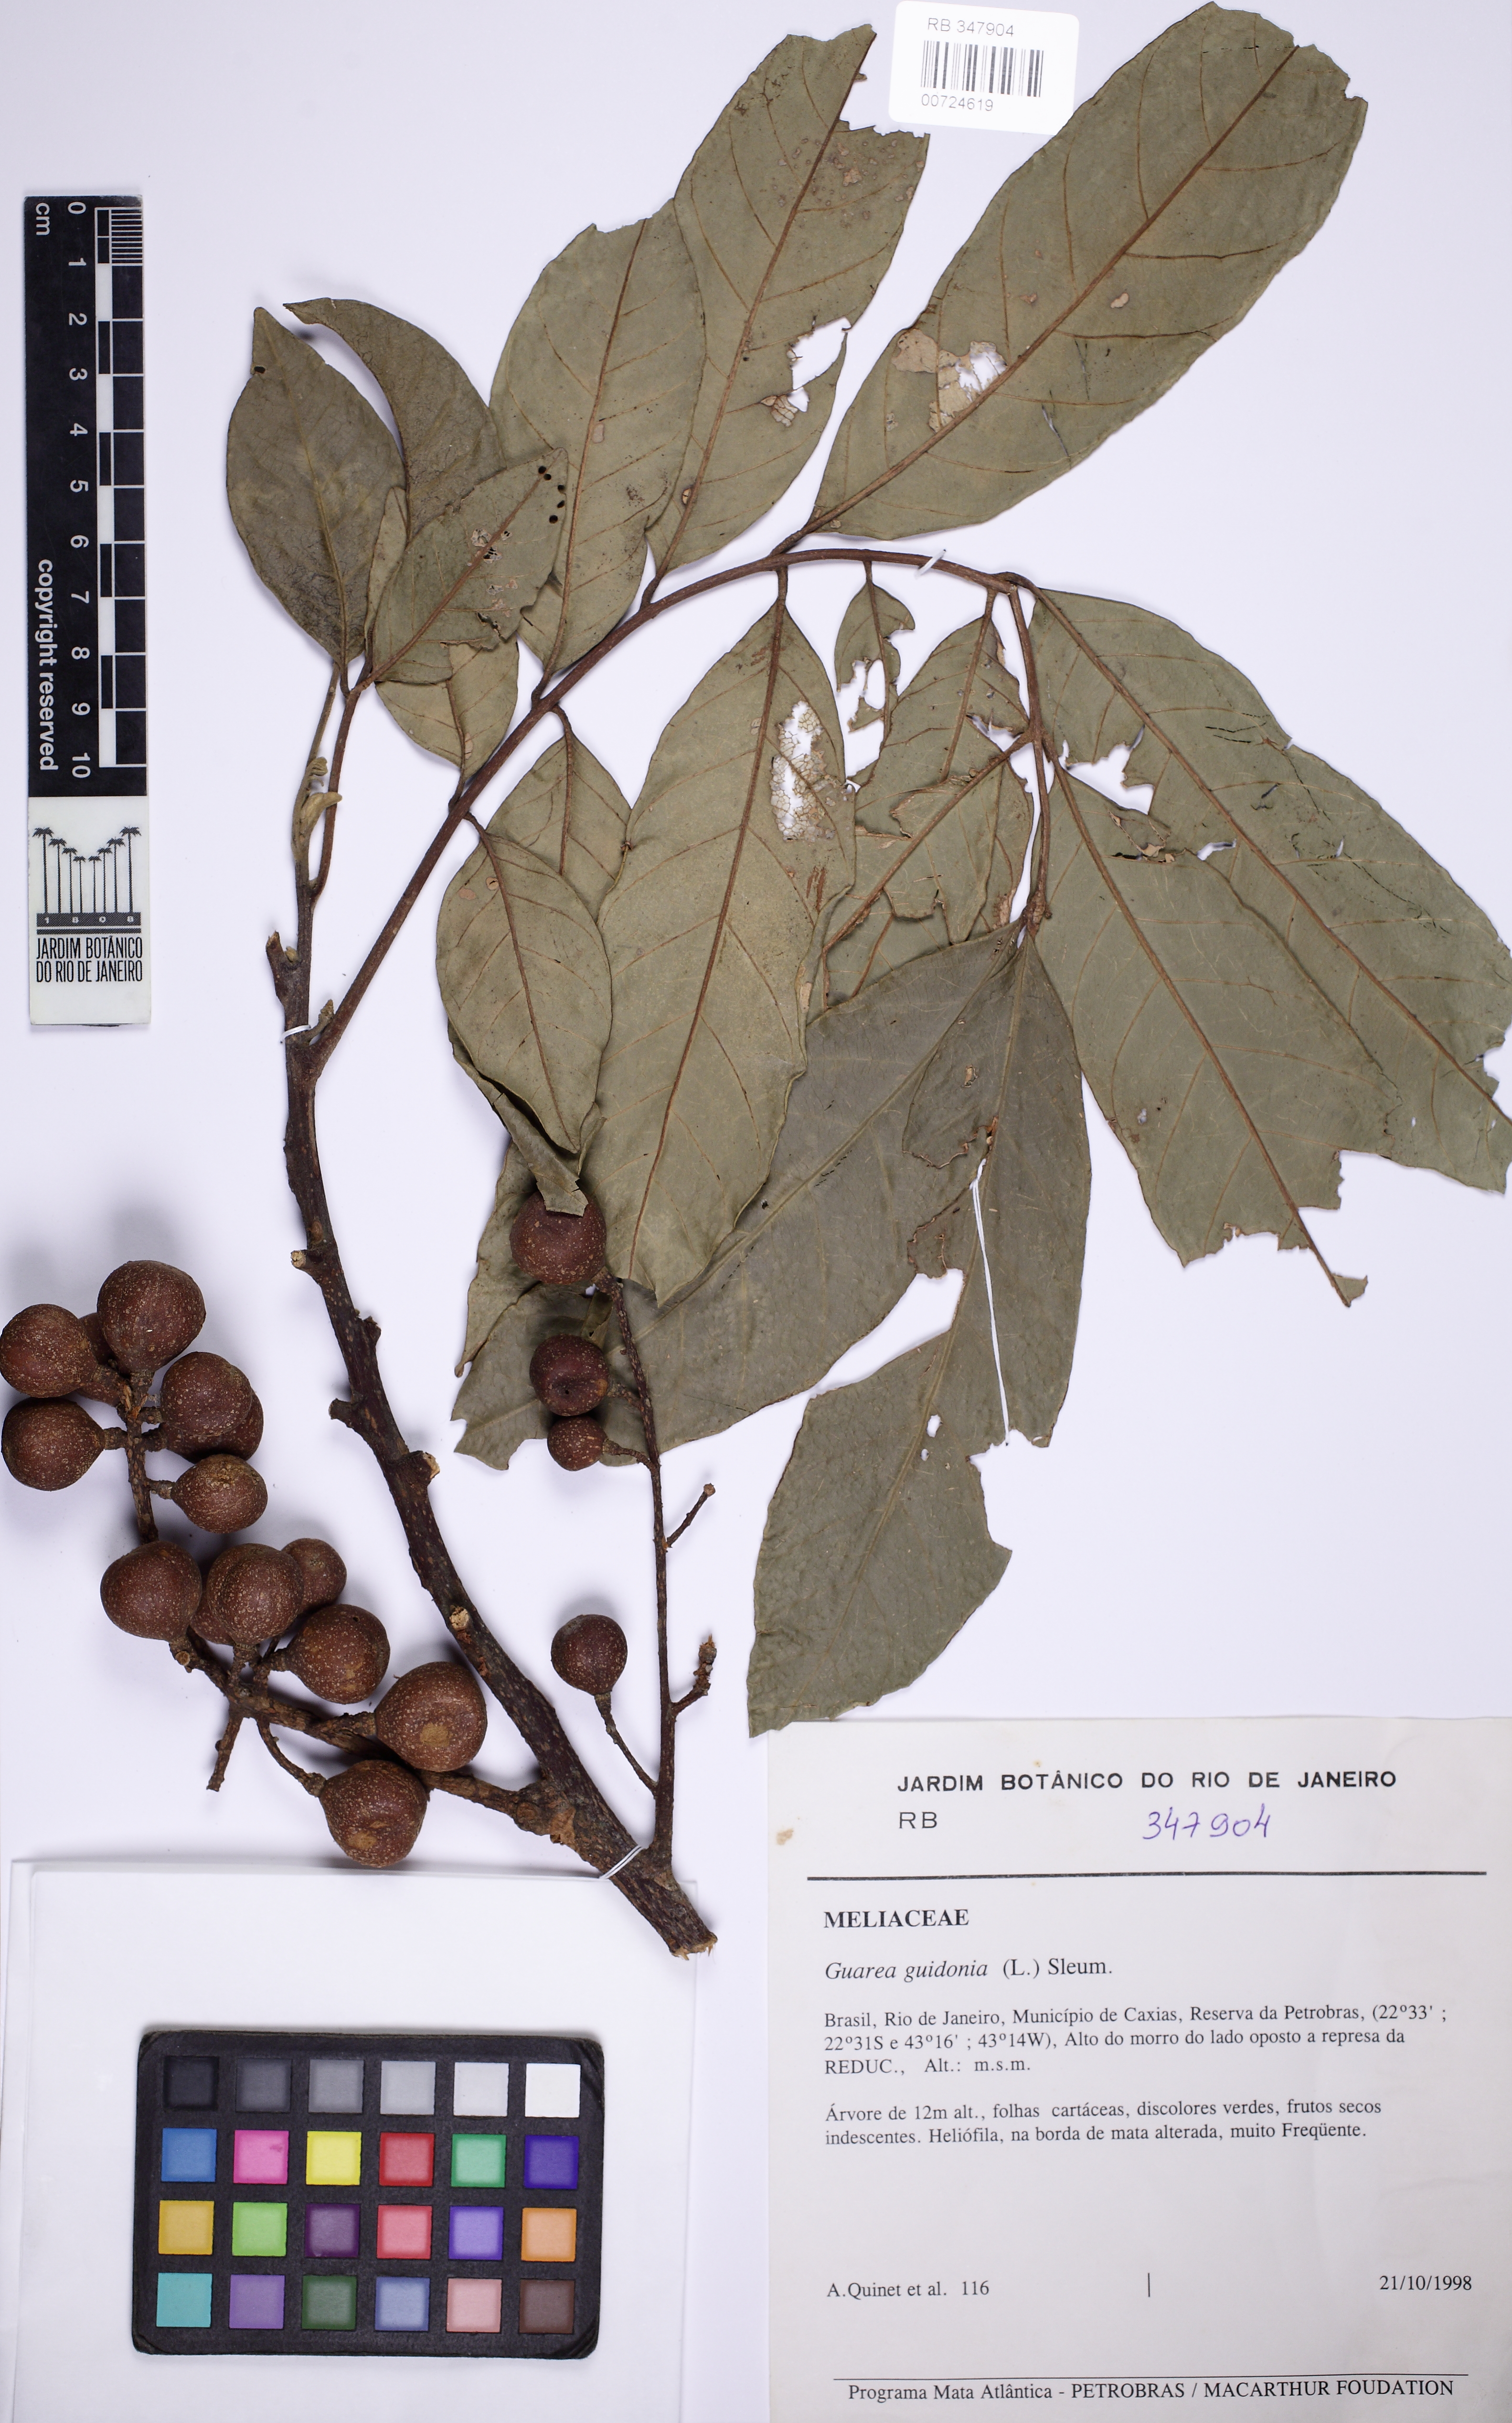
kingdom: Plantae
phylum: Tracheophyta
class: Magnoliopsida
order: Sapindales
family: Meliaceae
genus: Guarea
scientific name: Guarea guidonia
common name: American muskwood
